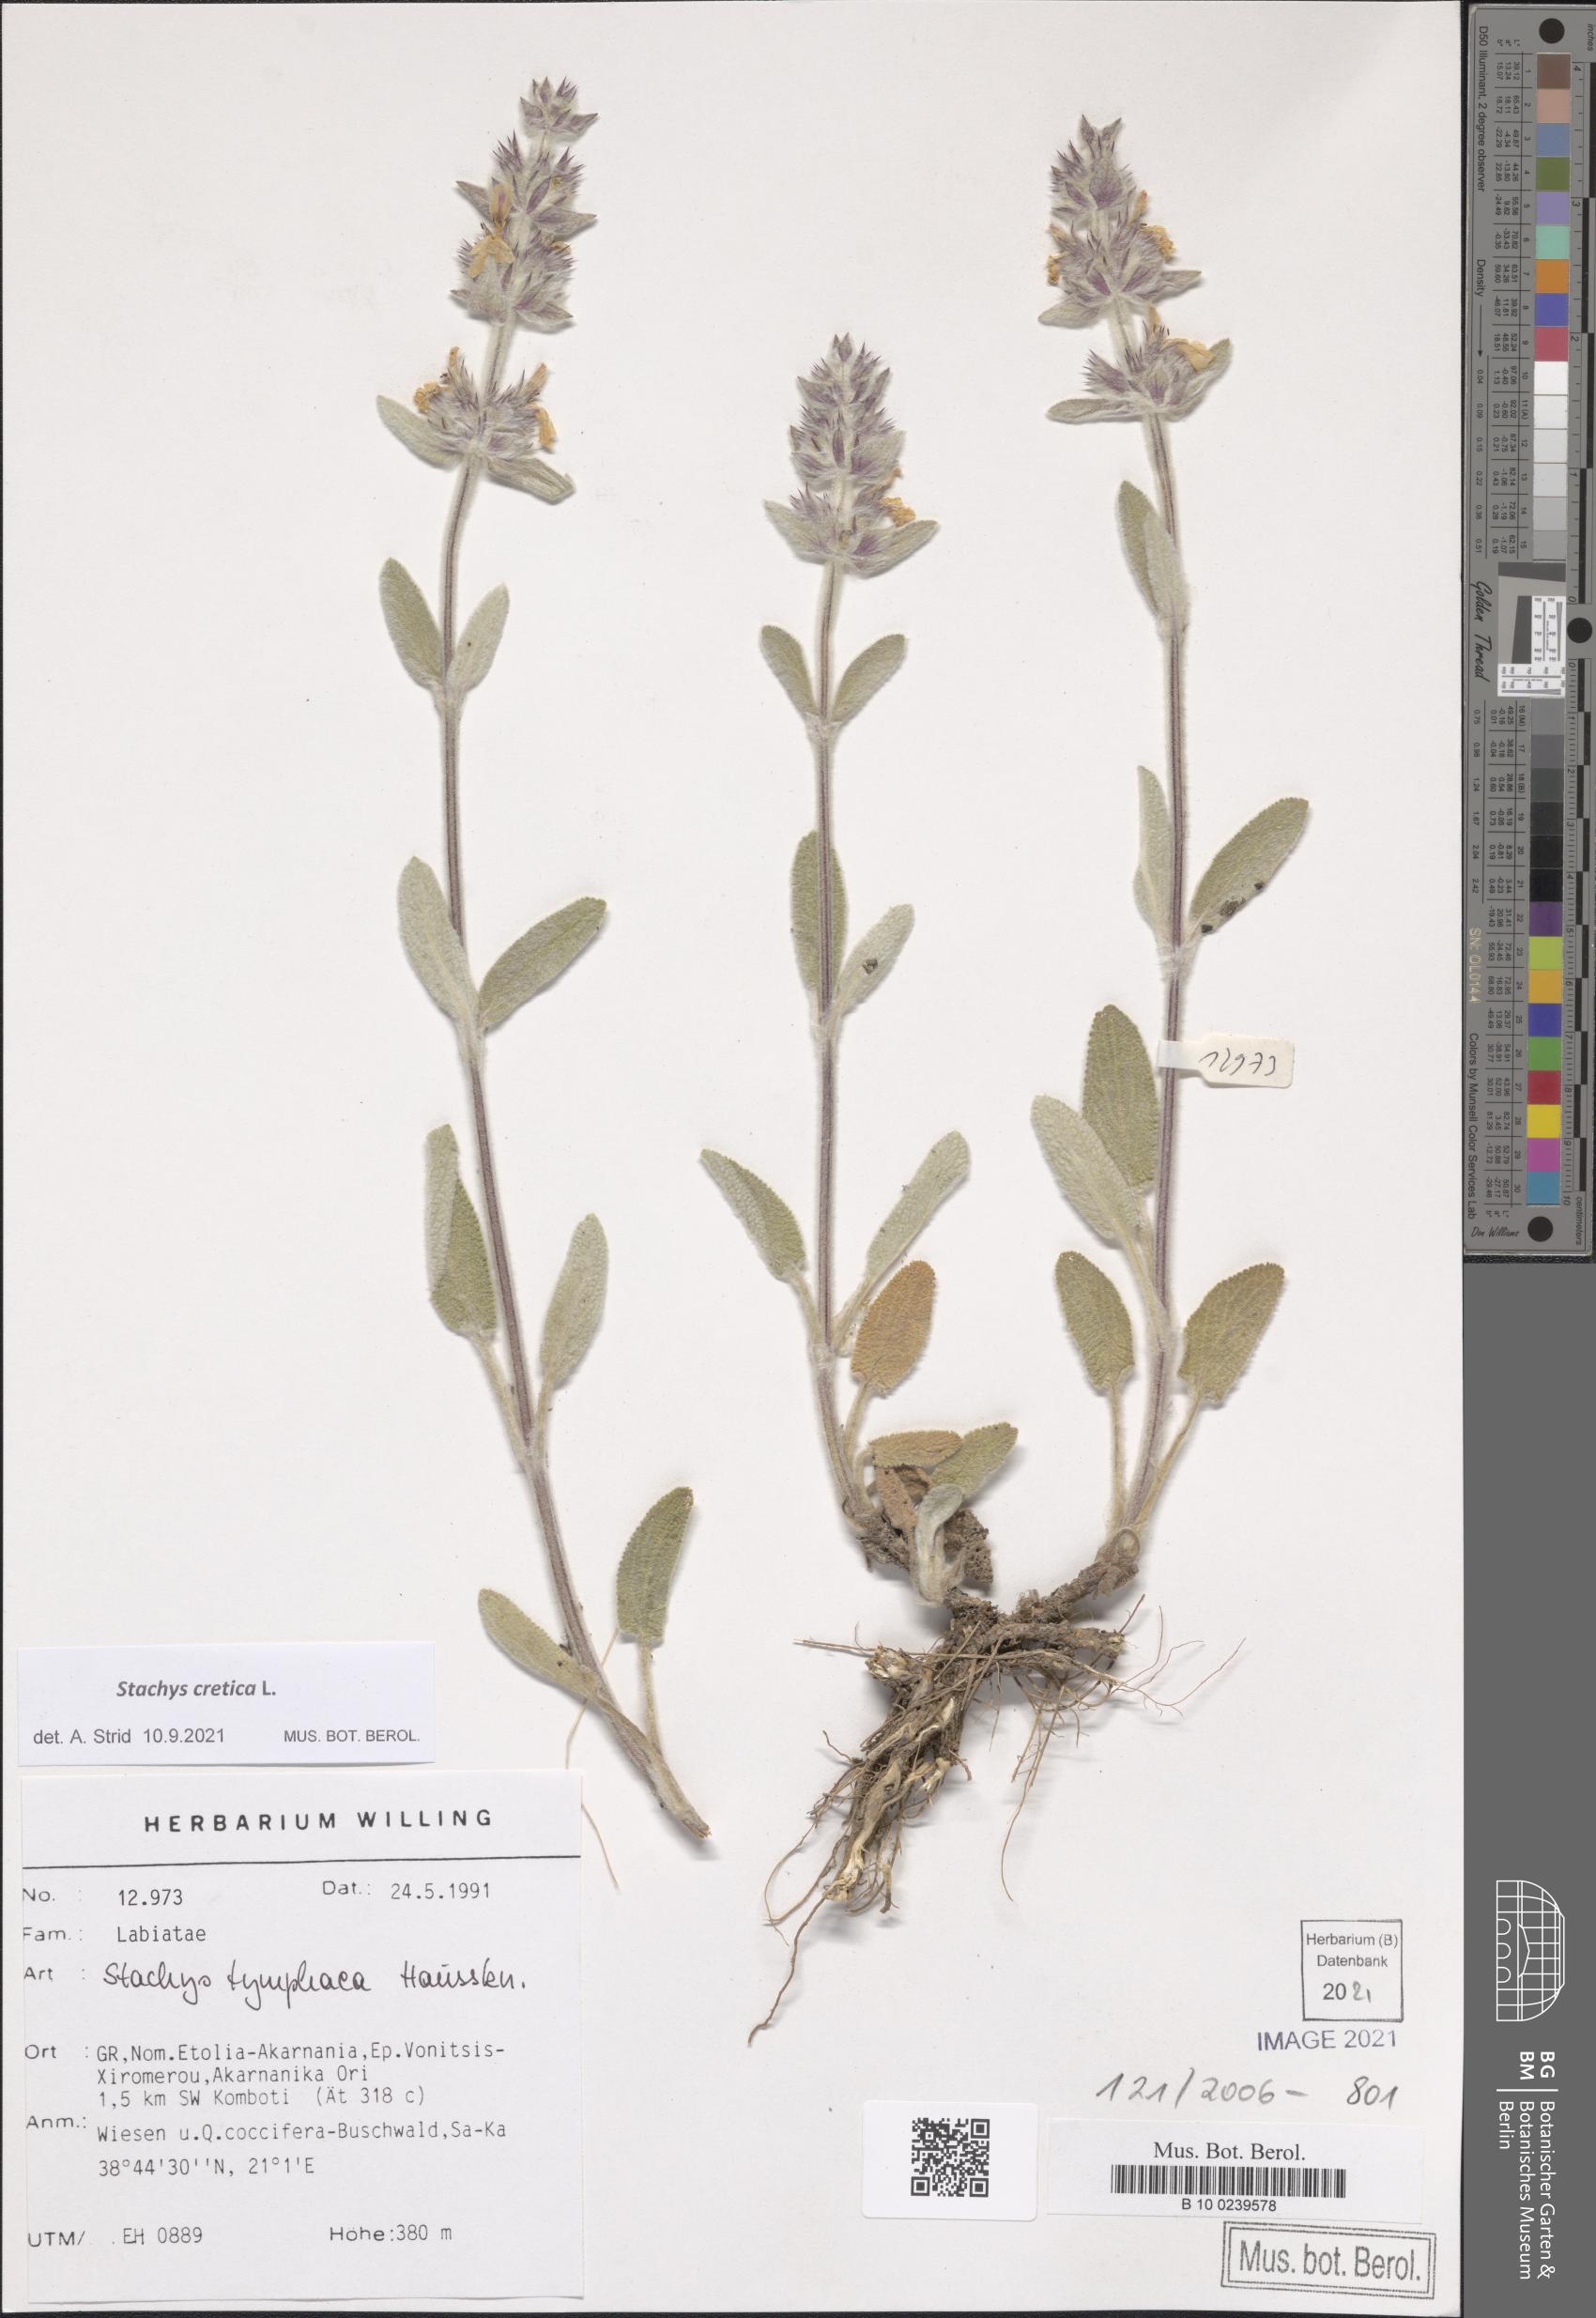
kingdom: Plantae
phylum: Tracheophyta
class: Magnoliopsida
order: Lamiales
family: Lamiaceae
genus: Stachys
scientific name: Stachys cretica
